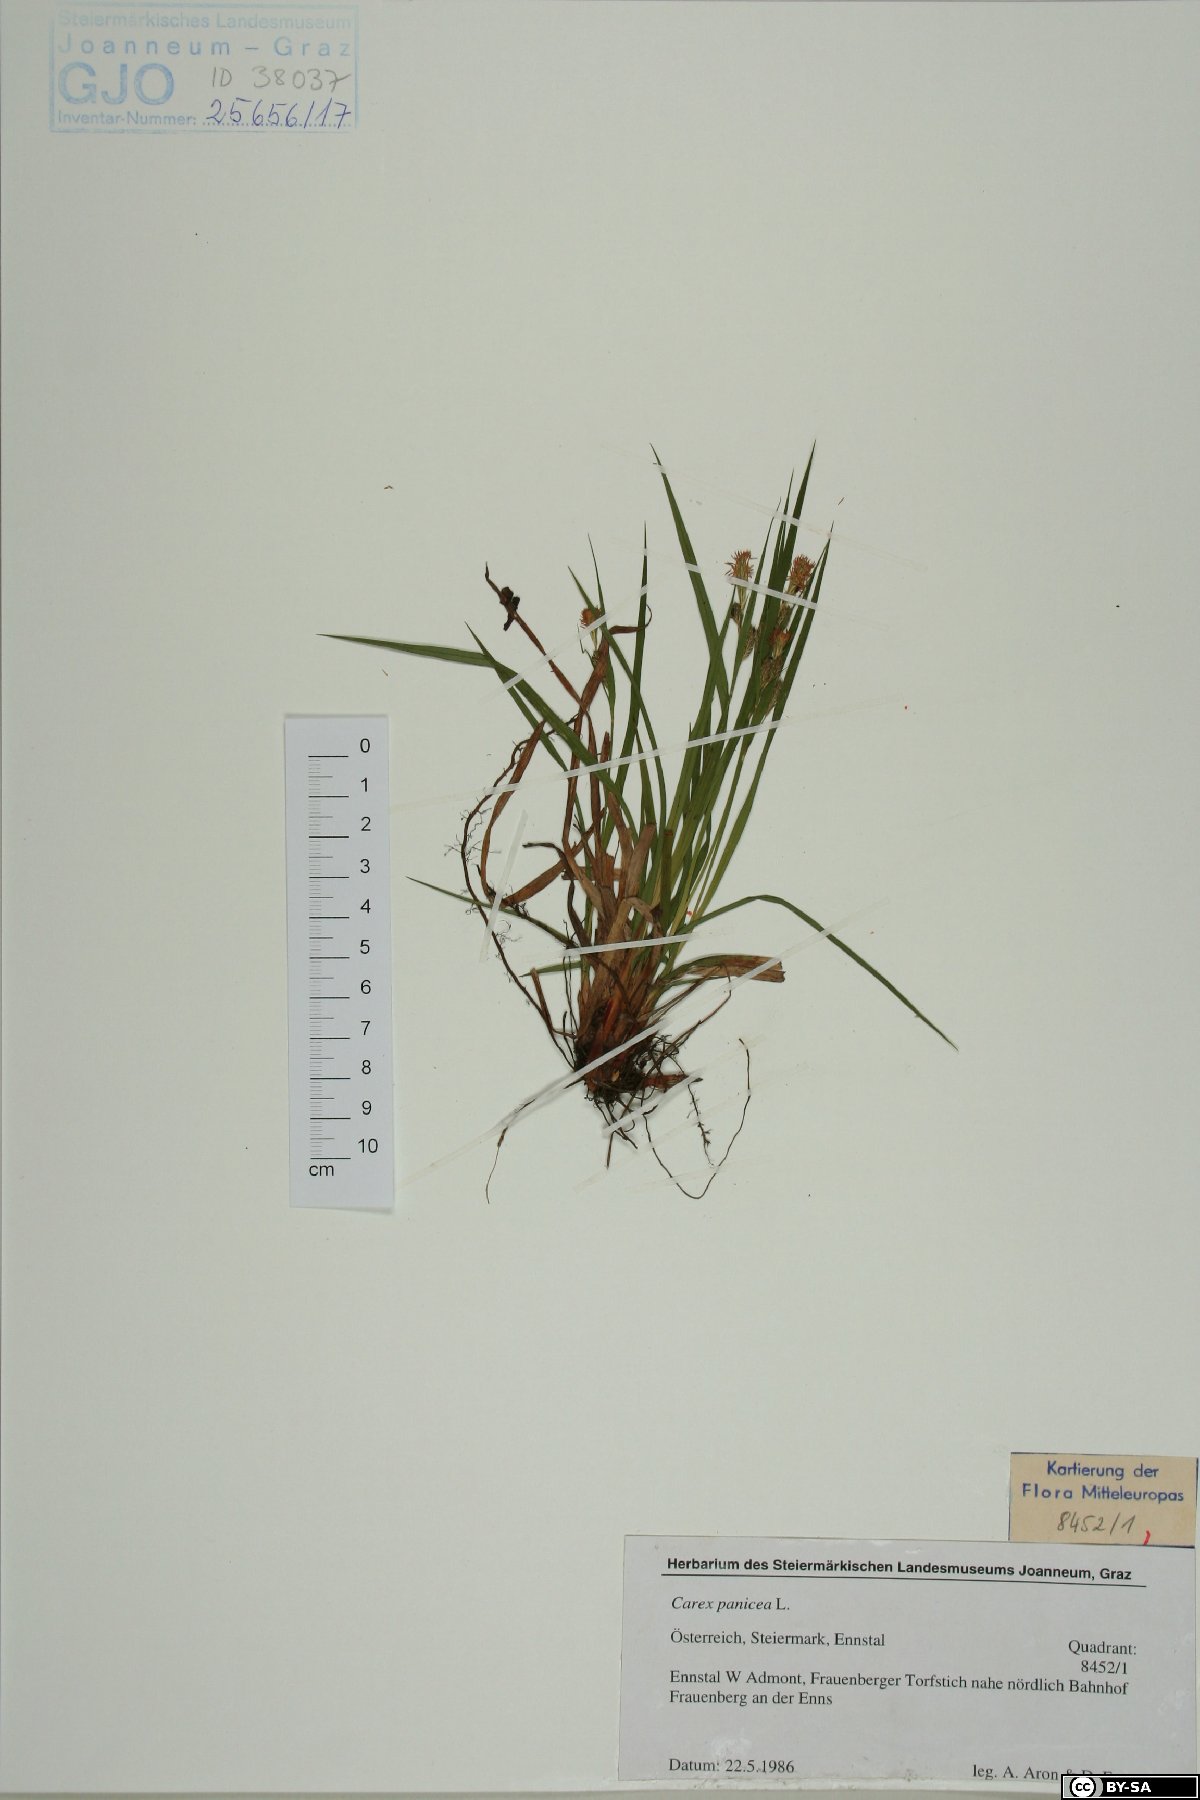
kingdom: Plantae
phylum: Tracheophyta
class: Liliopsida
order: Poales
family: Cyperaceae
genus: Carex
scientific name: Carex panicea
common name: Carnation sedge
